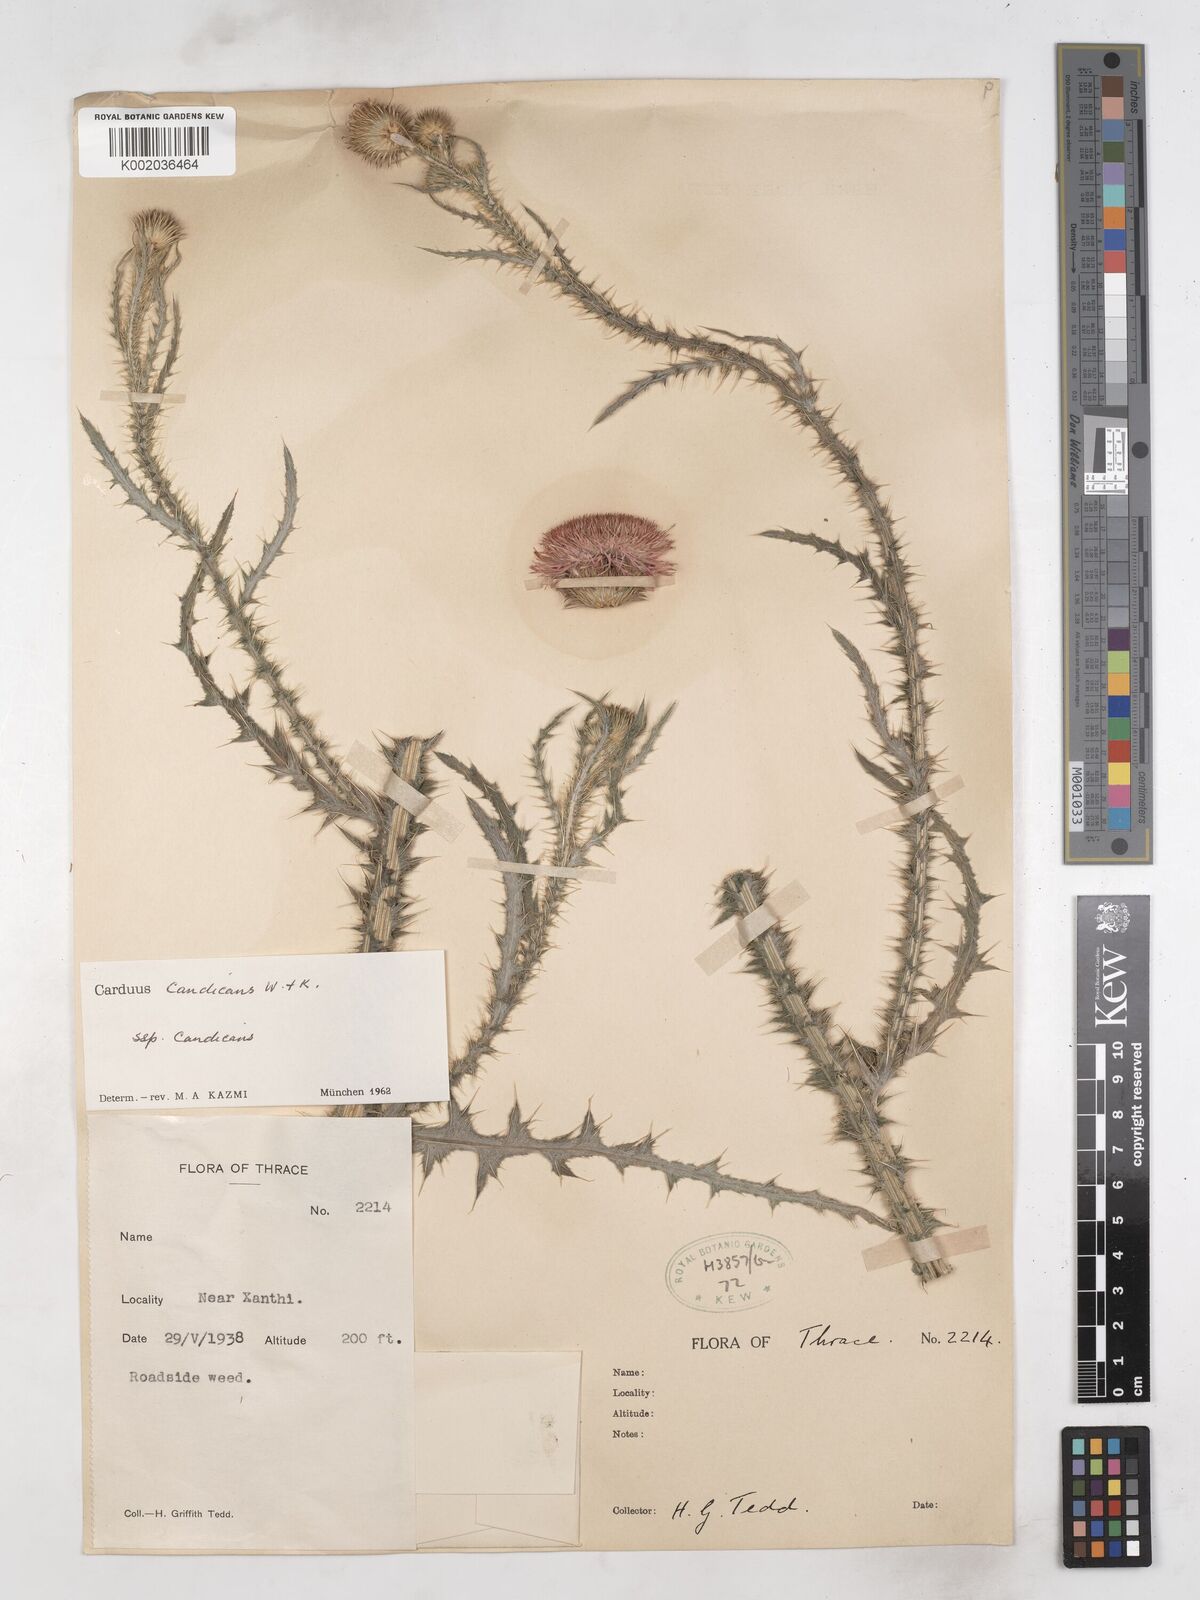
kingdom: Plantae
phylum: Tracheophyta
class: Magnoliopsida
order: Asterales
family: Asteraceae
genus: Carduus
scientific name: Carduus candicans
